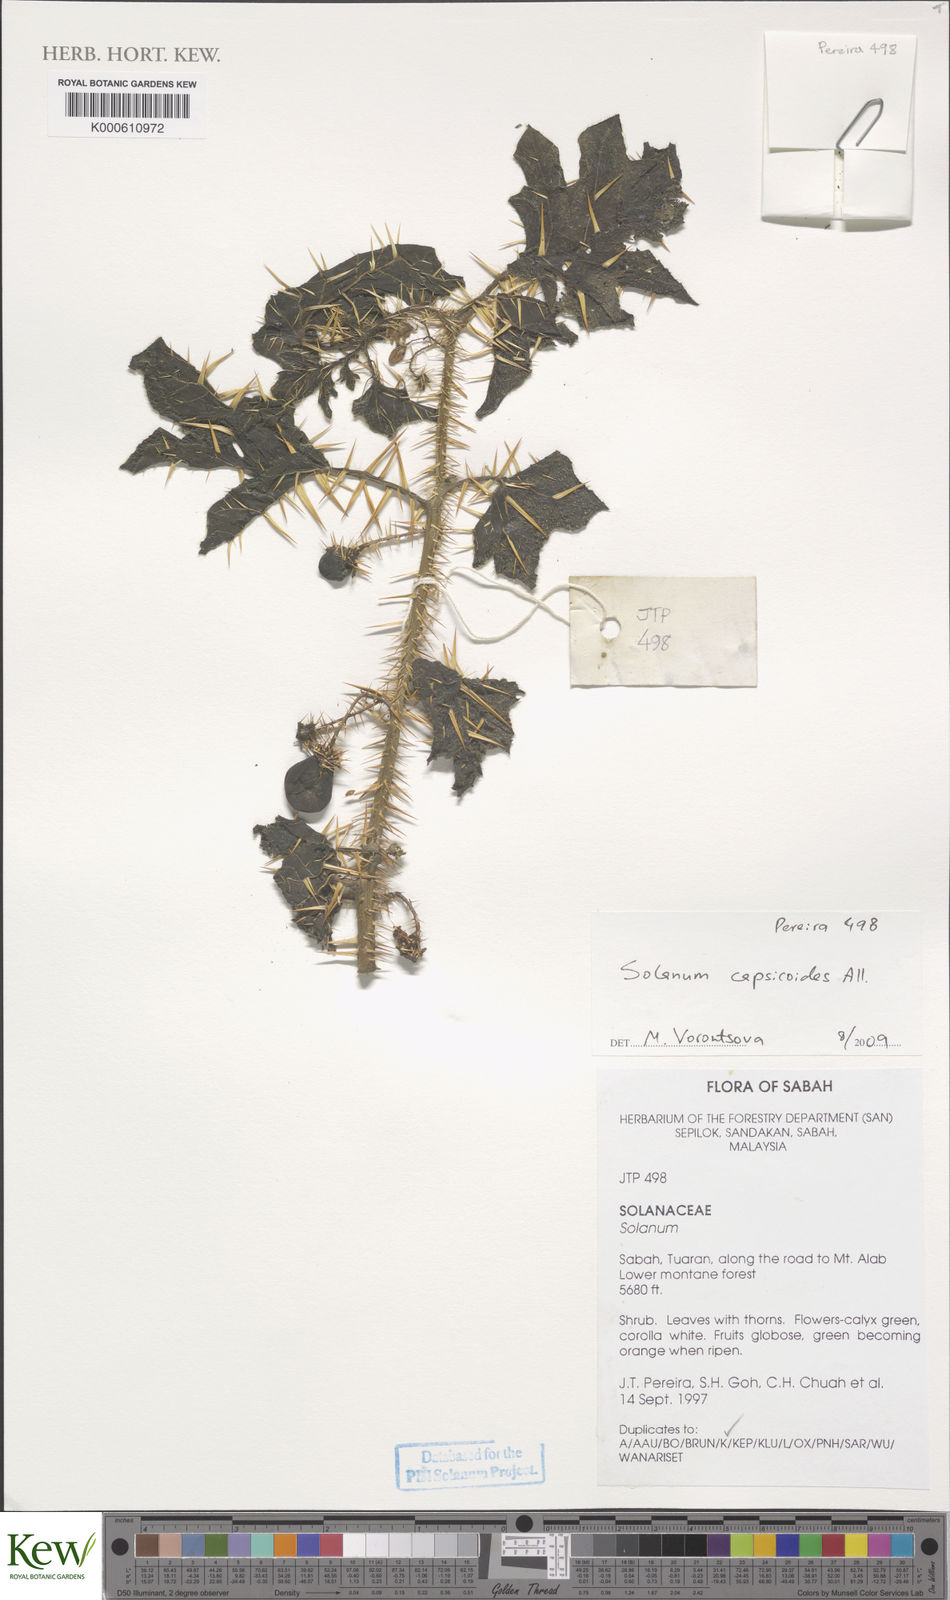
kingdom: Plantae
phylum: Tracheophyta
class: Magnoliopsida
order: Solanales
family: Solanaceae
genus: Solanum
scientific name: Solanum capsicoides
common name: Cockroach berry
